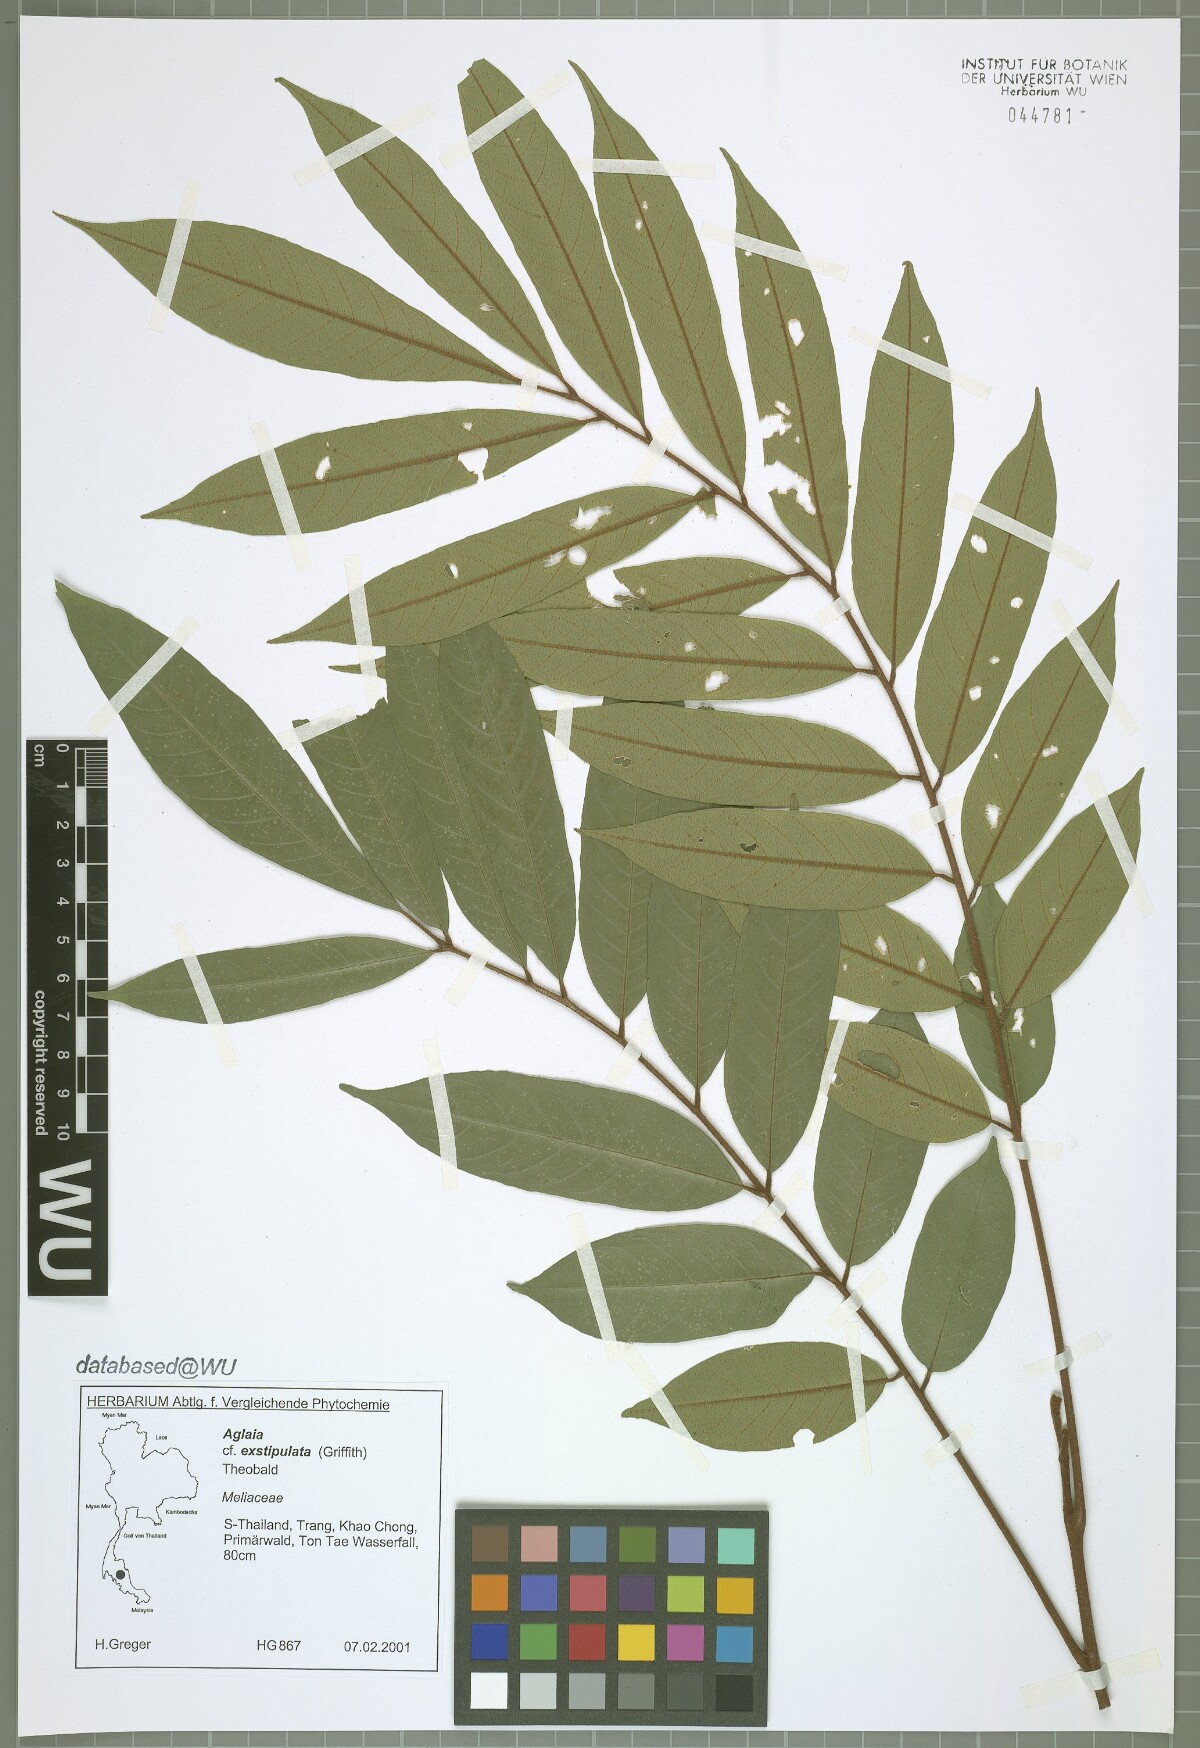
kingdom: Plantae
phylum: Tracheophyta
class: Magnoliopsida
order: Sapindales
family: Meliaceae
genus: Aglaia
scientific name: Aglaia exstipulata
